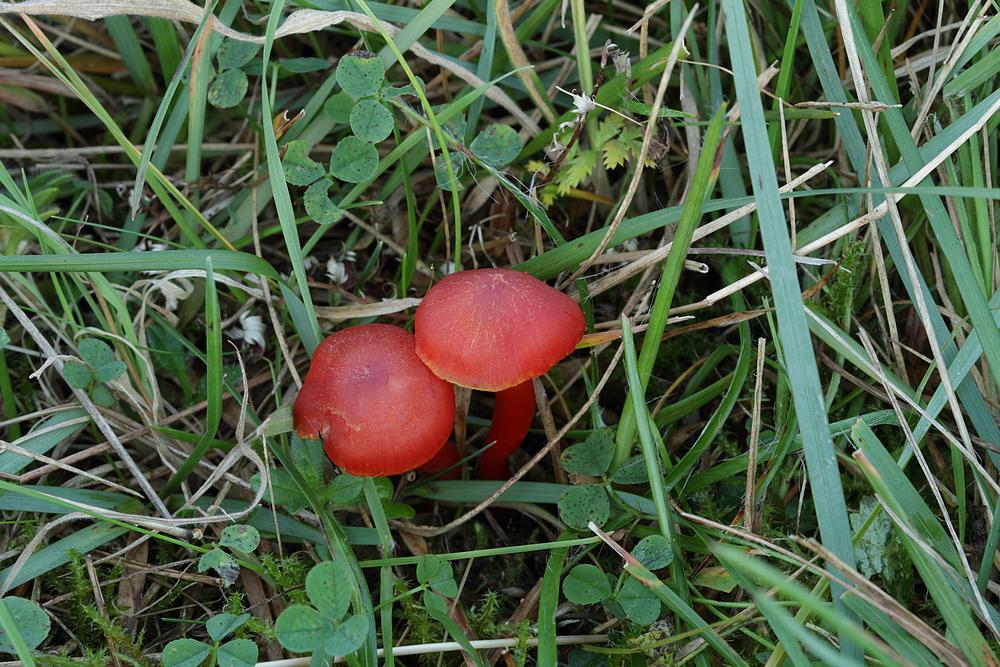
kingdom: Fungi
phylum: Basidiomycota
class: Agaricomycetes
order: Agaricales
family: Hygrophoraceae
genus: Hygrocybe
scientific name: Hygrocybe phaeococcinea
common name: sortdugget vokshat
